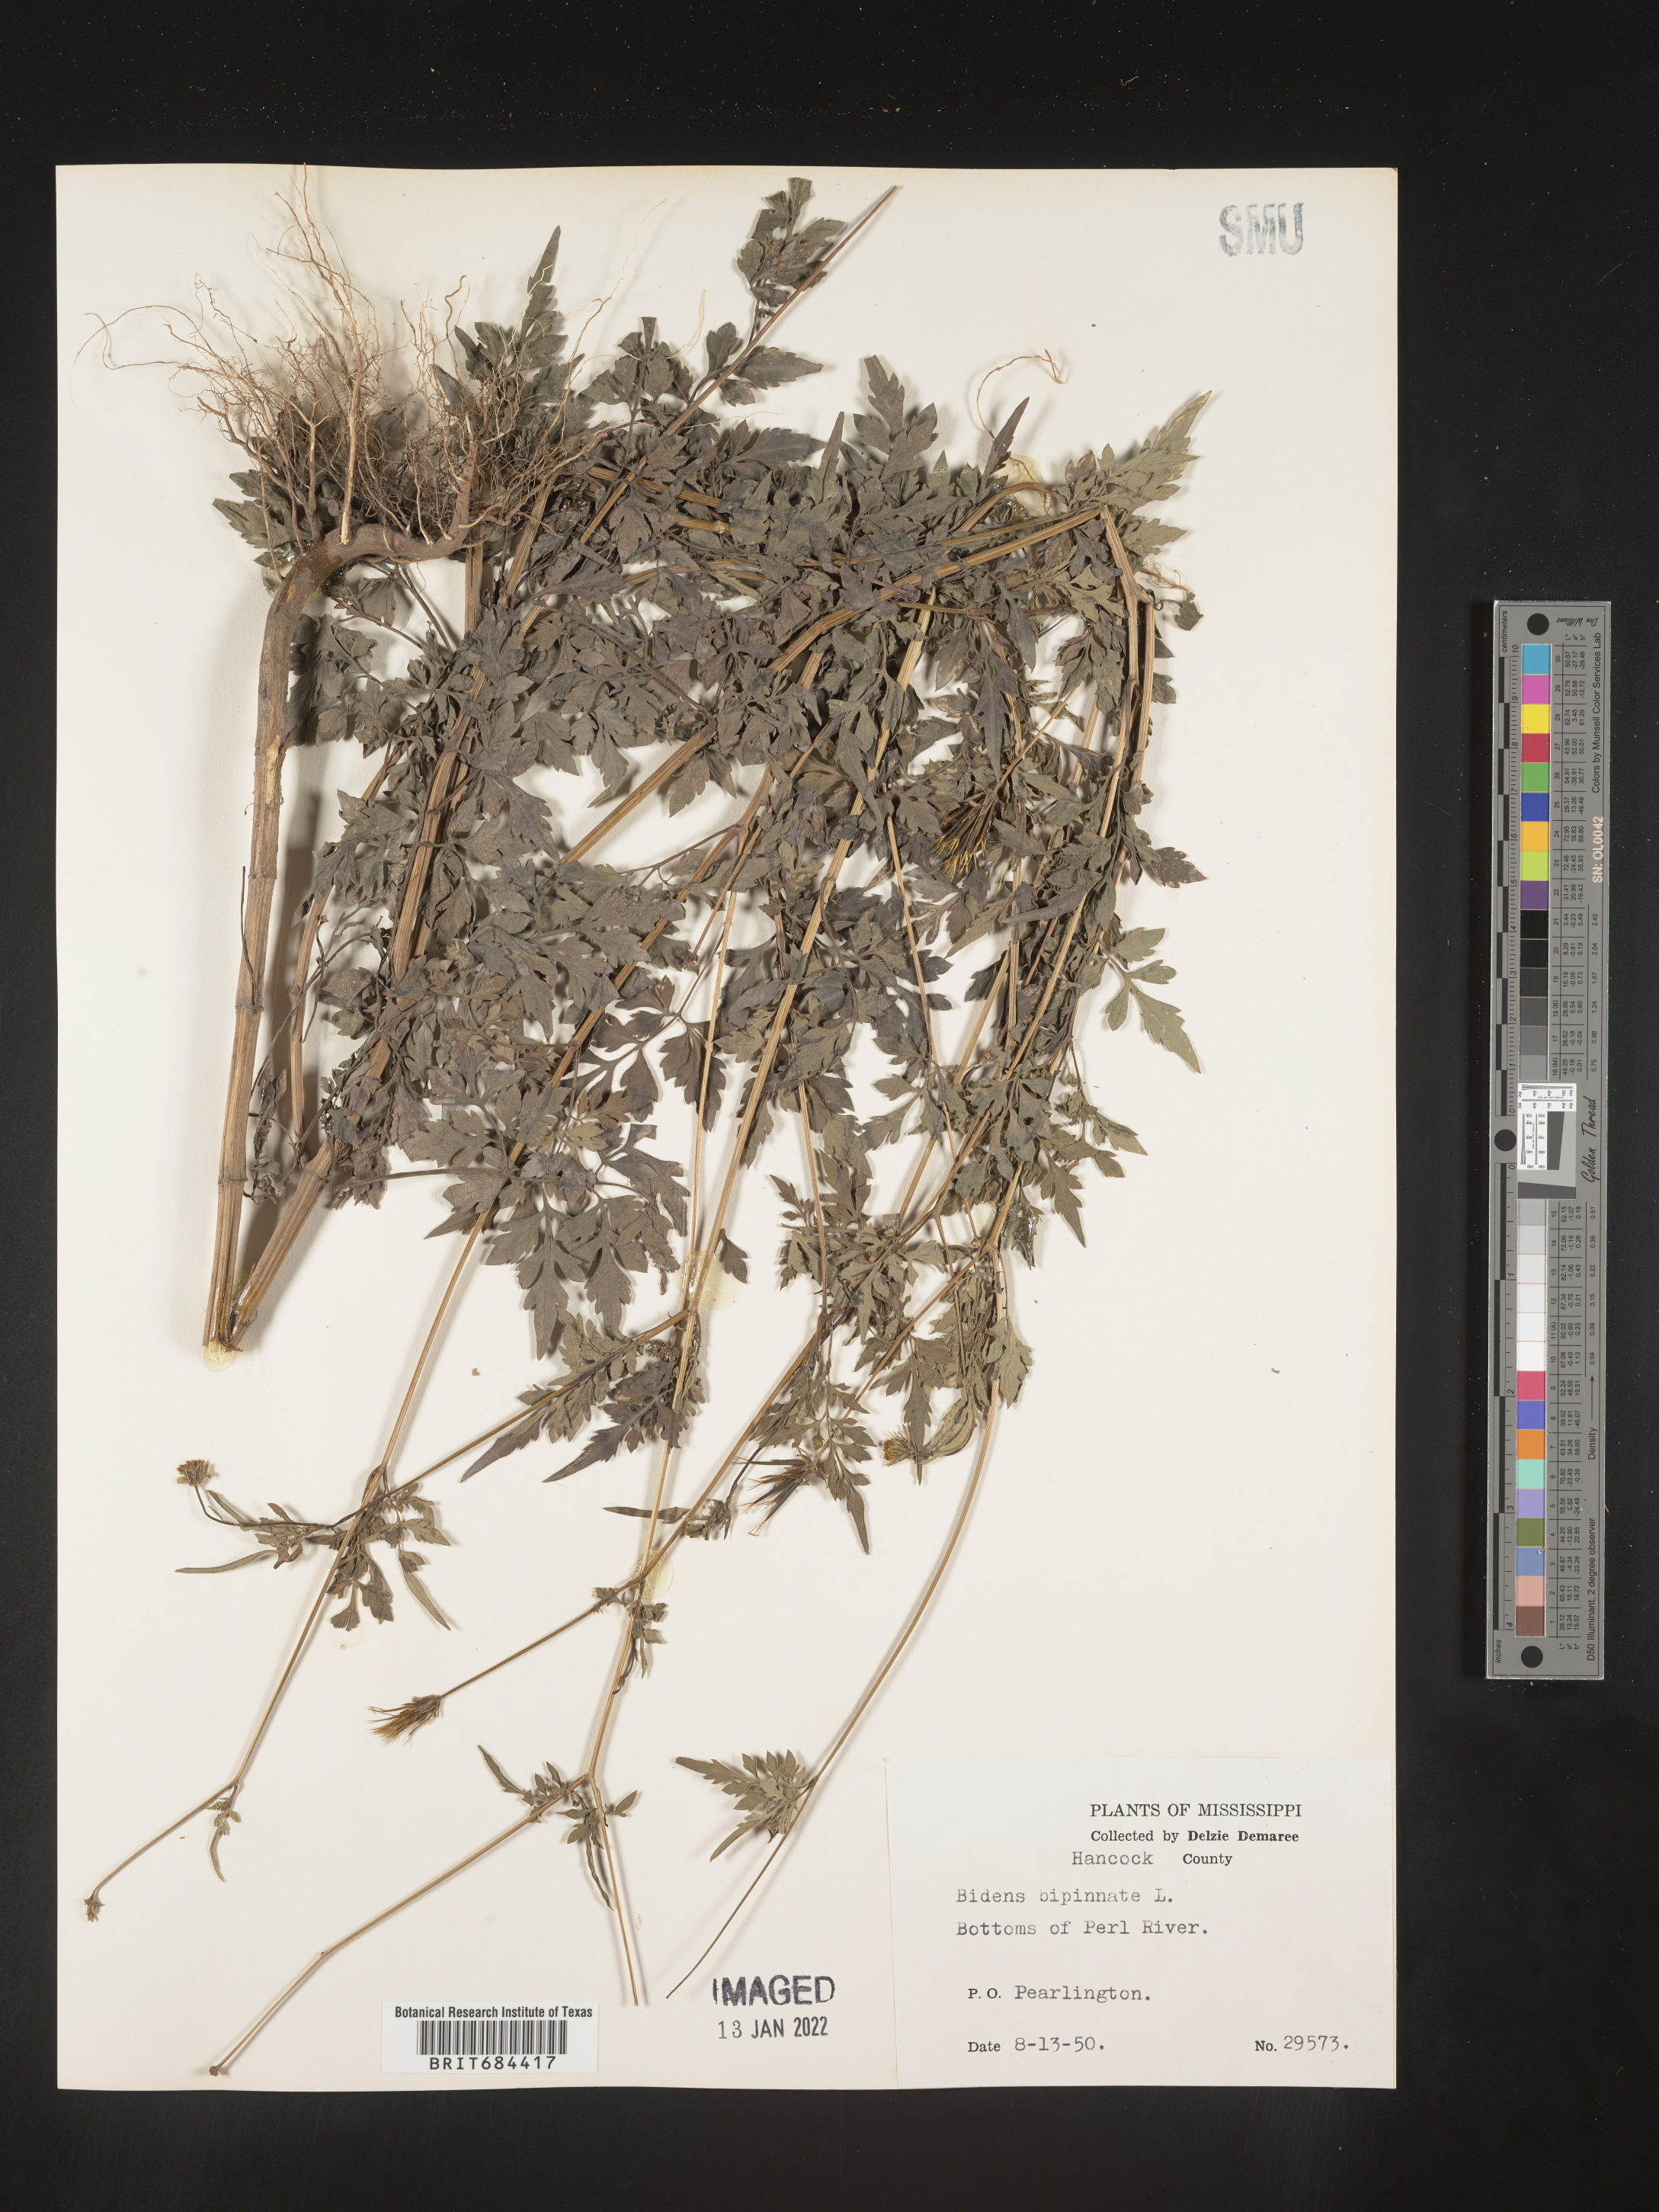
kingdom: Plantae
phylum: Tracheophyta
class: Magnoliopsida
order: Asterales
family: Asteraceae
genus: Bidens
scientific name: Bidens bipinnata
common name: Spanish-needles
